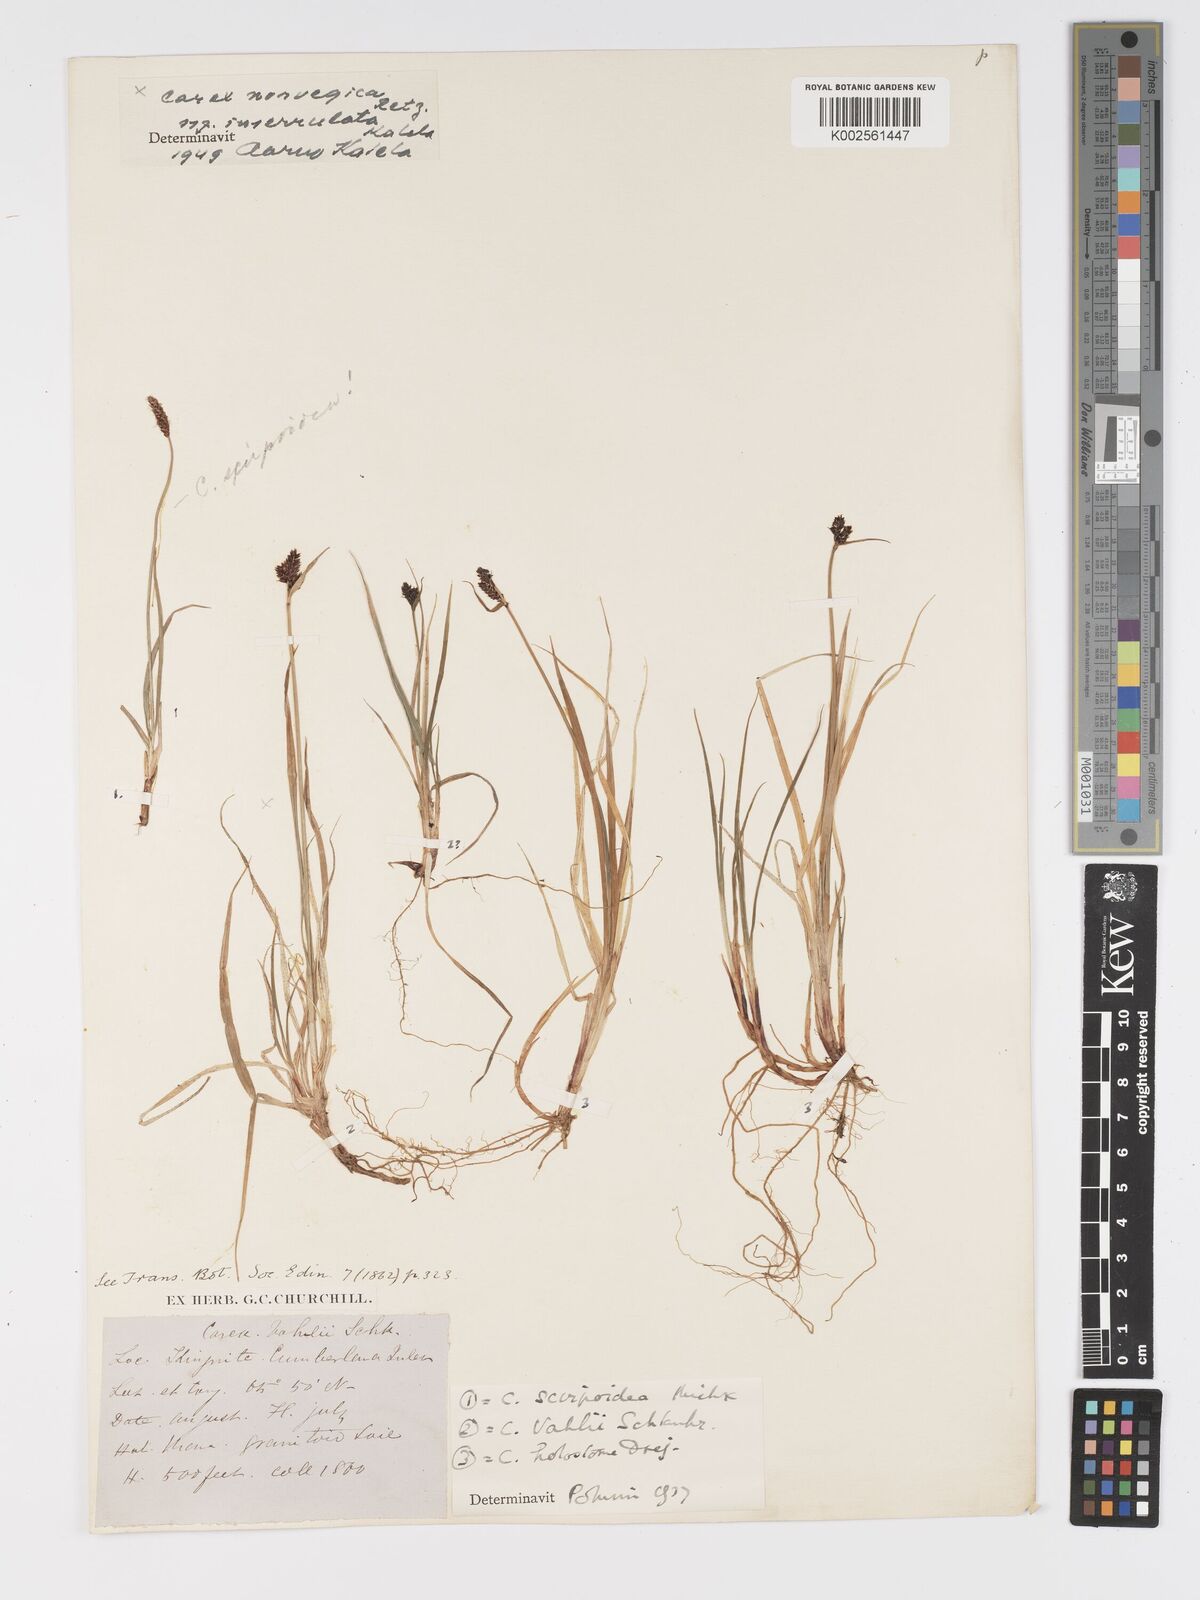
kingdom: Plantae
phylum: Tracheophyta
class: Liliopsida
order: Poales
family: Cyperaceae
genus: Carex
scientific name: Carex norvegica
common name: Close-headed alpine-sedge
